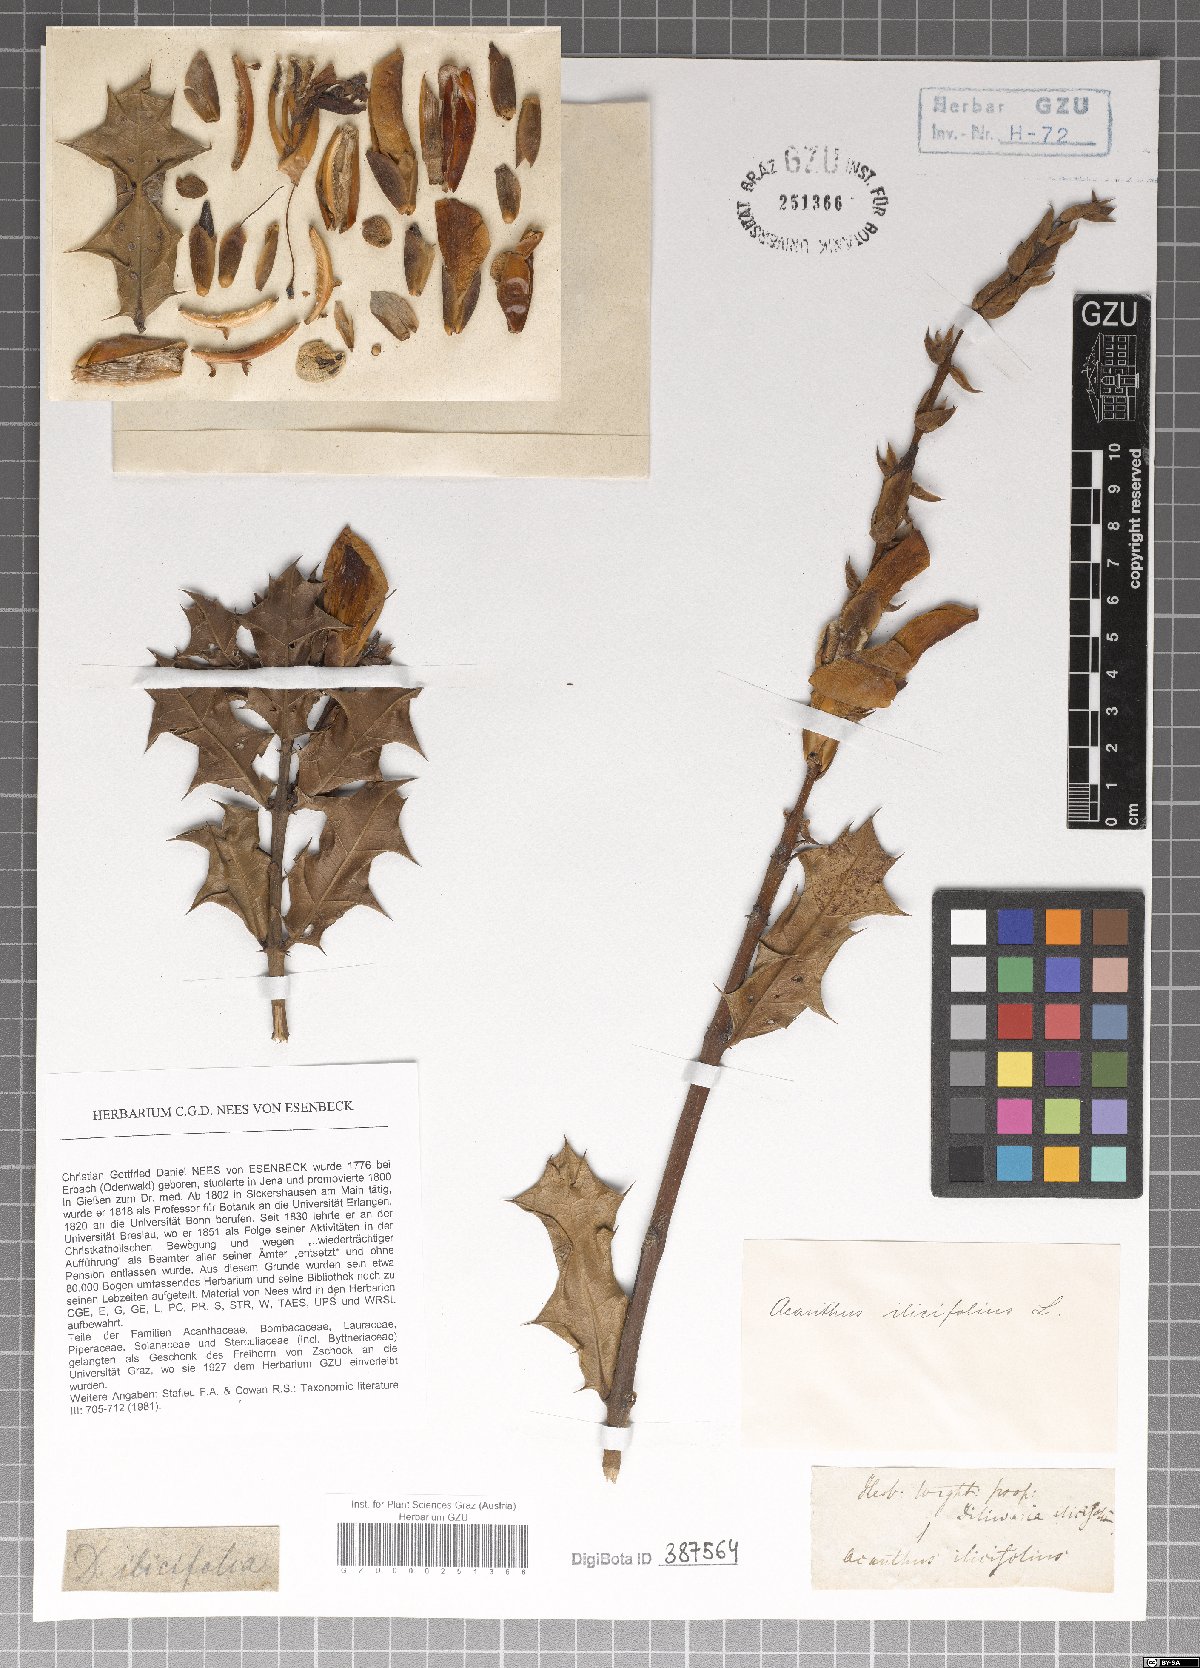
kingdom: Plantae
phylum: Tracheophyta
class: Magnoliopsida
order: Lamiales
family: Acanthaceae
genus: Acanthus
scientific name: Acanthus ilicifolius
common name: Holy mangrove
